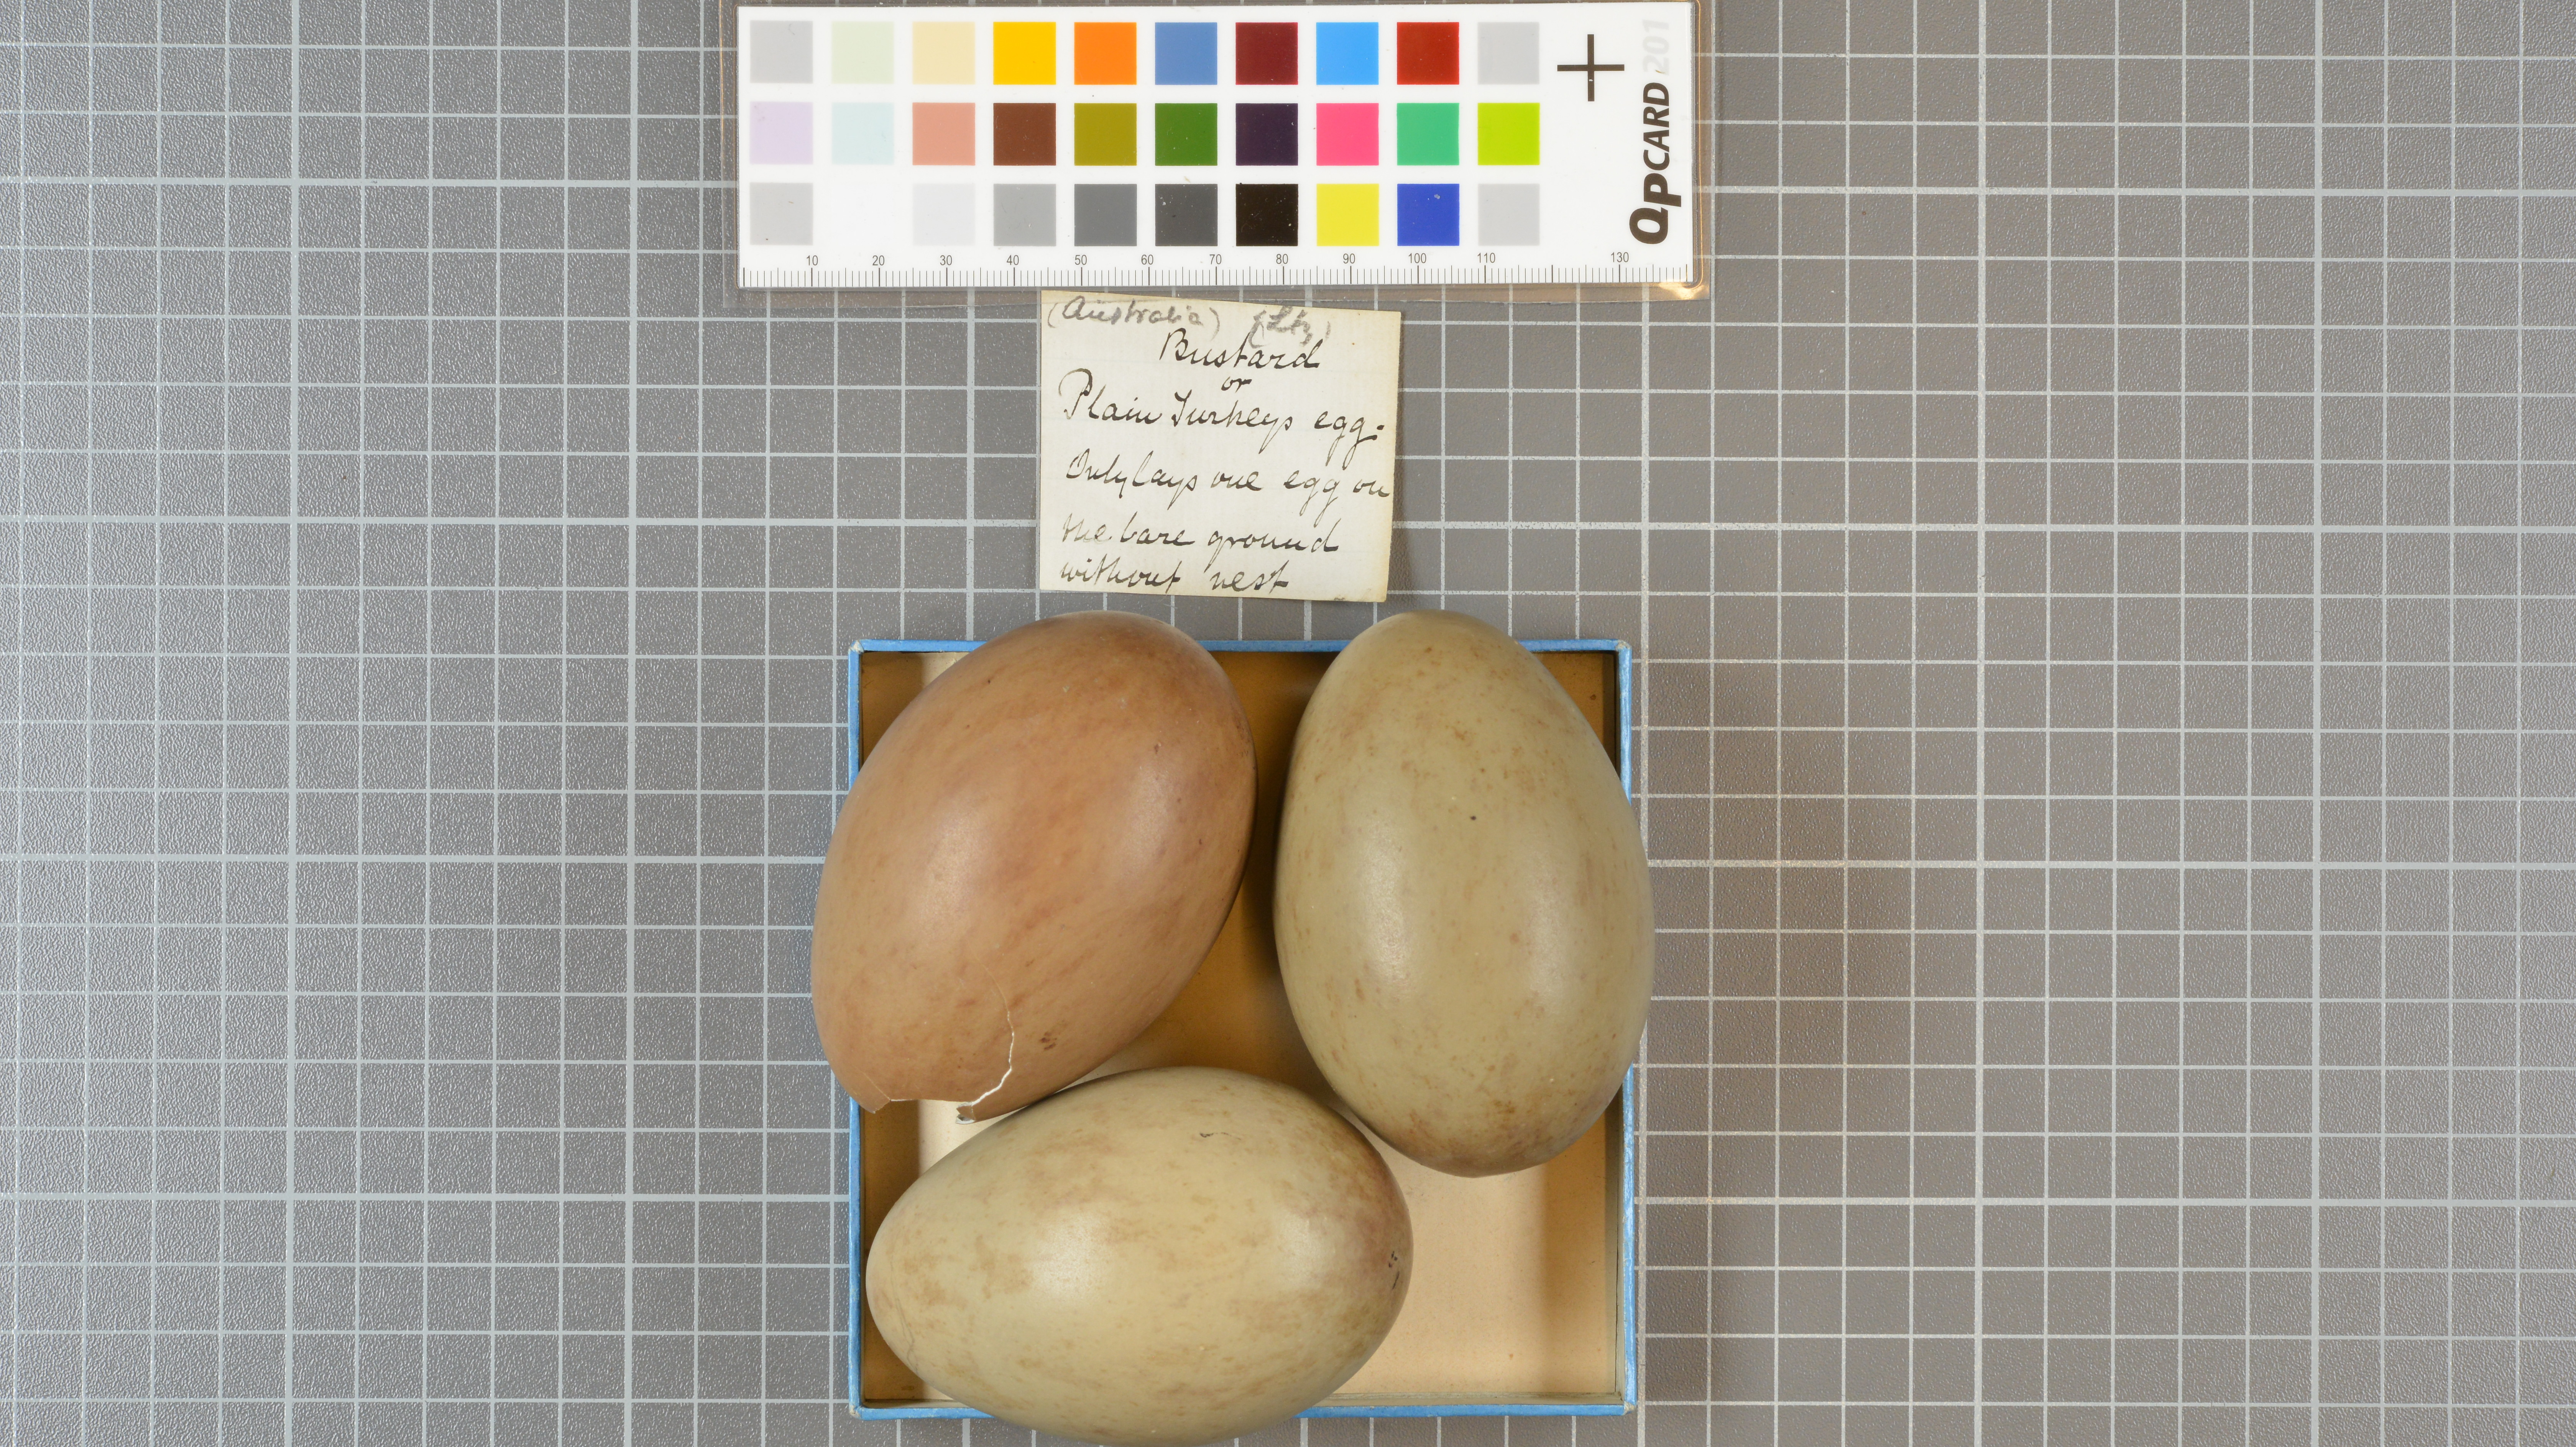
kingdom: Animalia
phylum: Chordata
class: Aves
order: Otidiformes
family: Otididae
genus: Ardeotis
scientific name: Ardeotis australis
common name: Australian bustard
